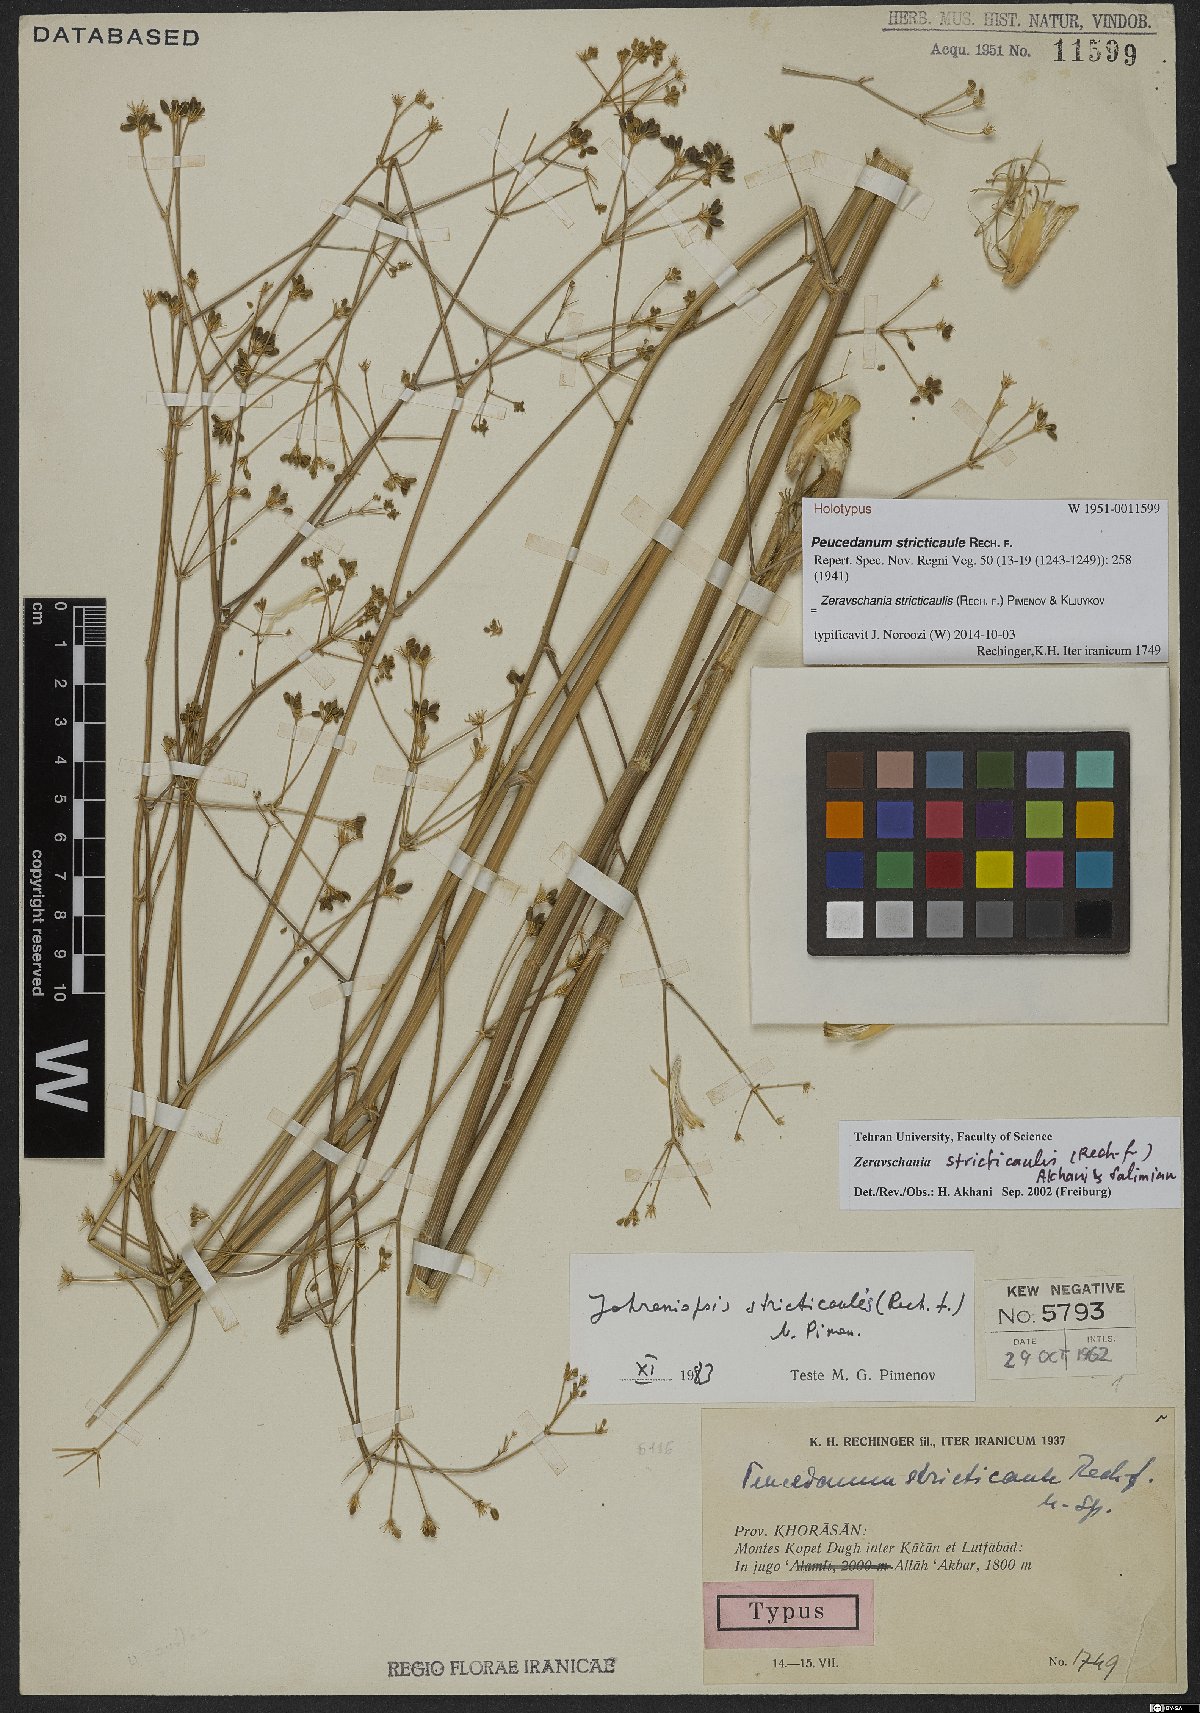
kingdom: Plantae
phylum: Tracheophyta
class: Magnoliopsida
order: Apiales
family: Apiaceae
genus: Zeravschania
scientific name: Zeravschania stricticaulis
